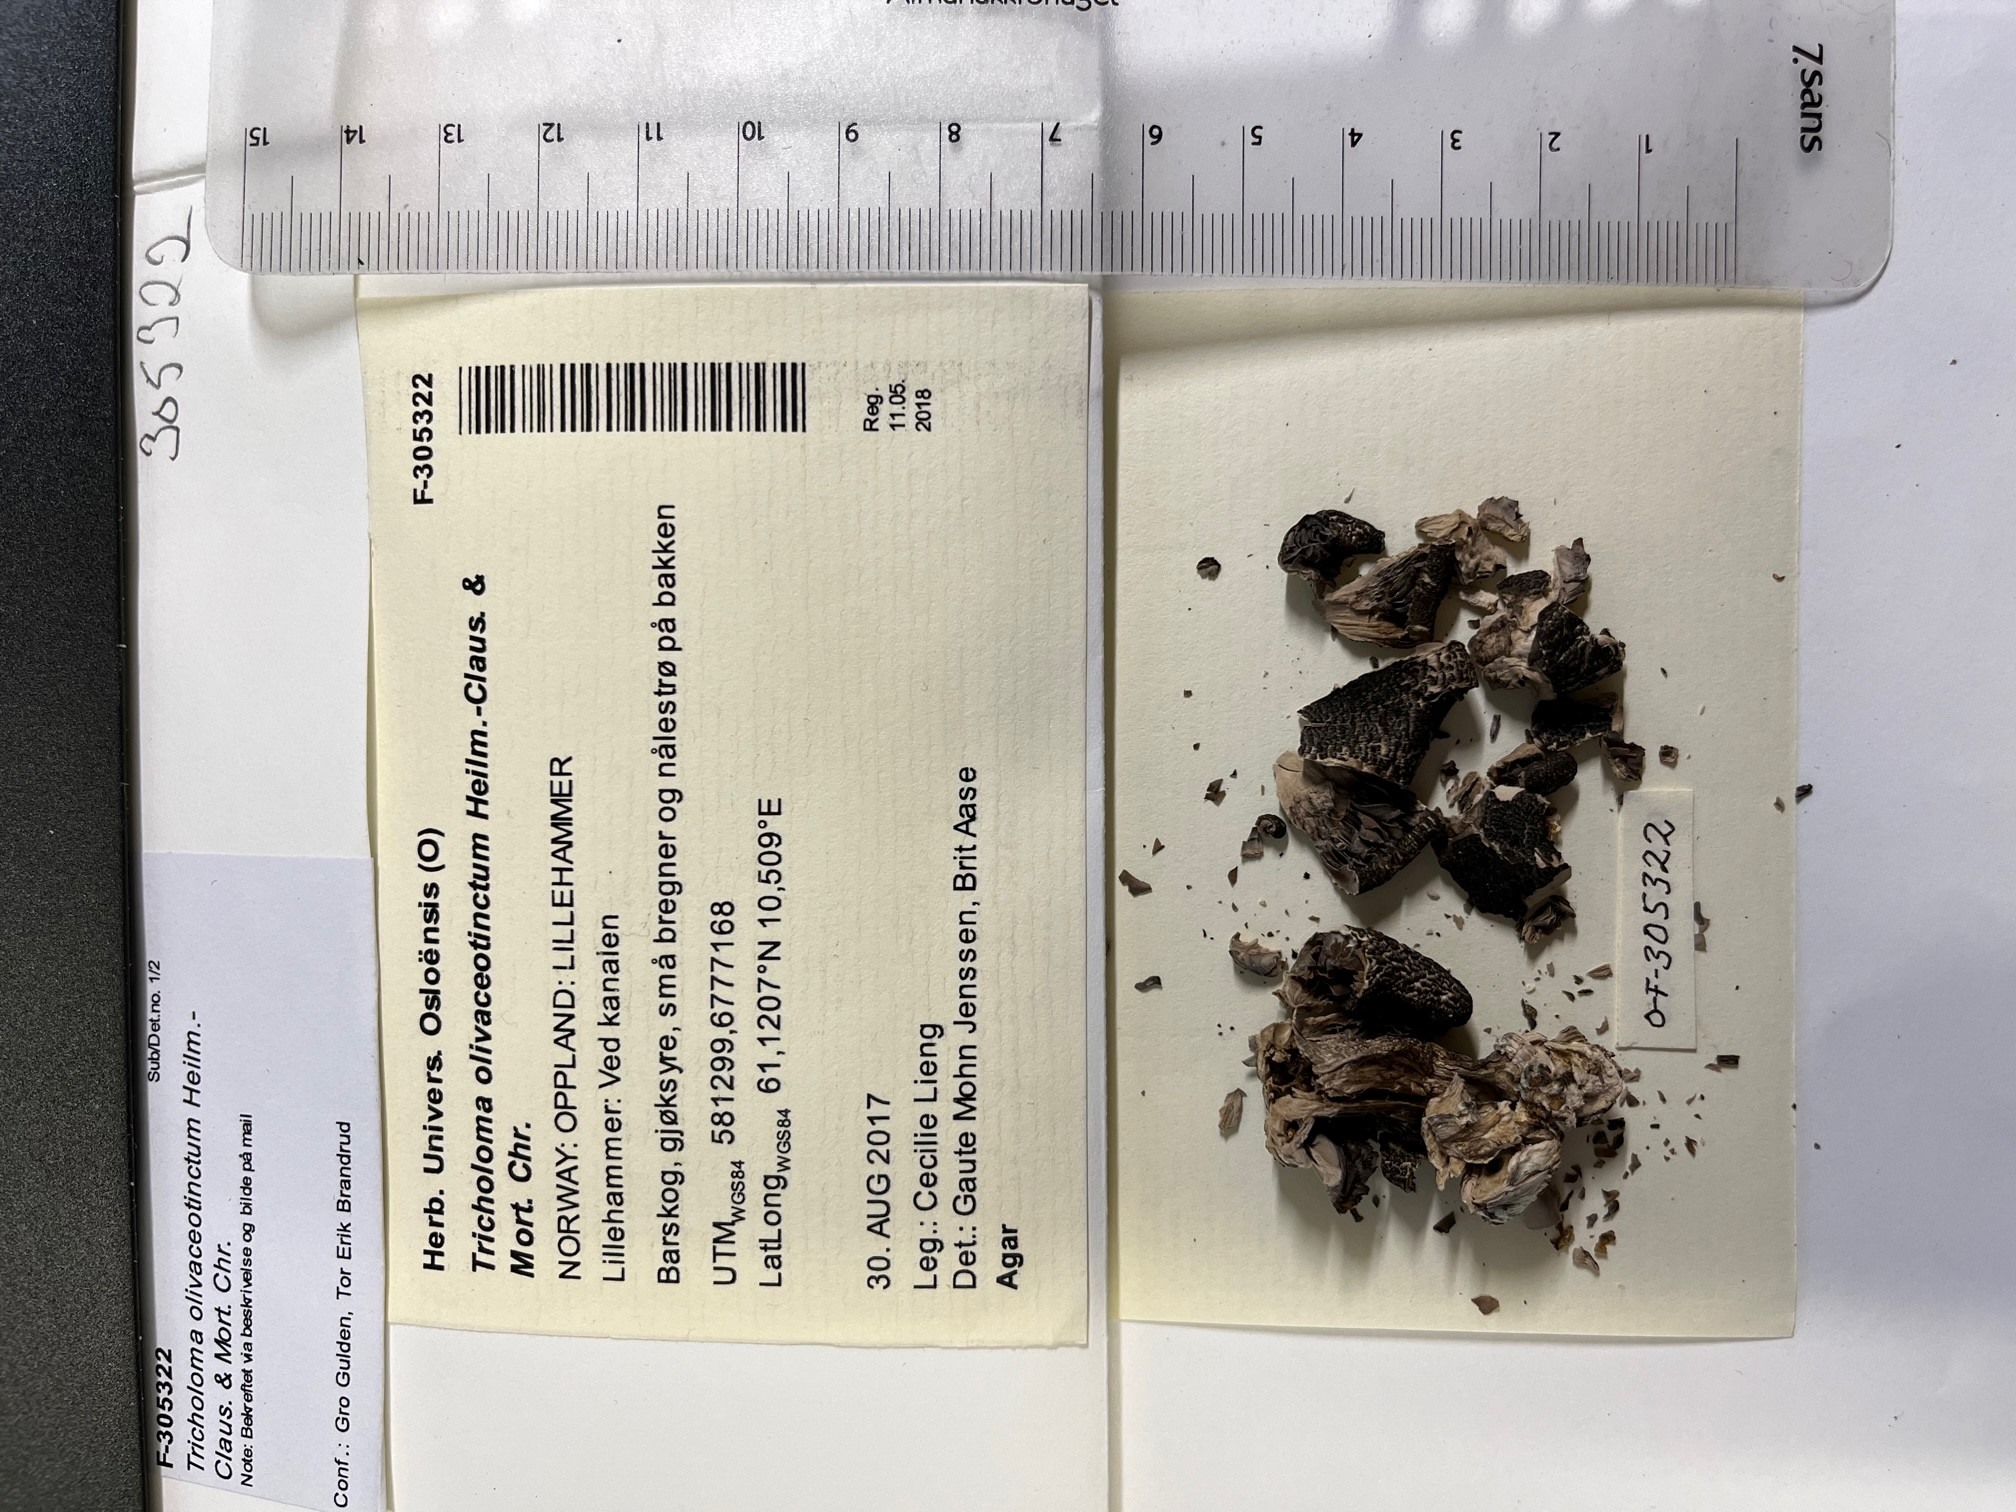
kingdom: Fungi
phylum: Basidiomycota
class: Agaricomycetes
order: Agaricales
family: Tricholomataceae
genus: Tricholoma
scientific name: Tricholoma olivaceotinctum
